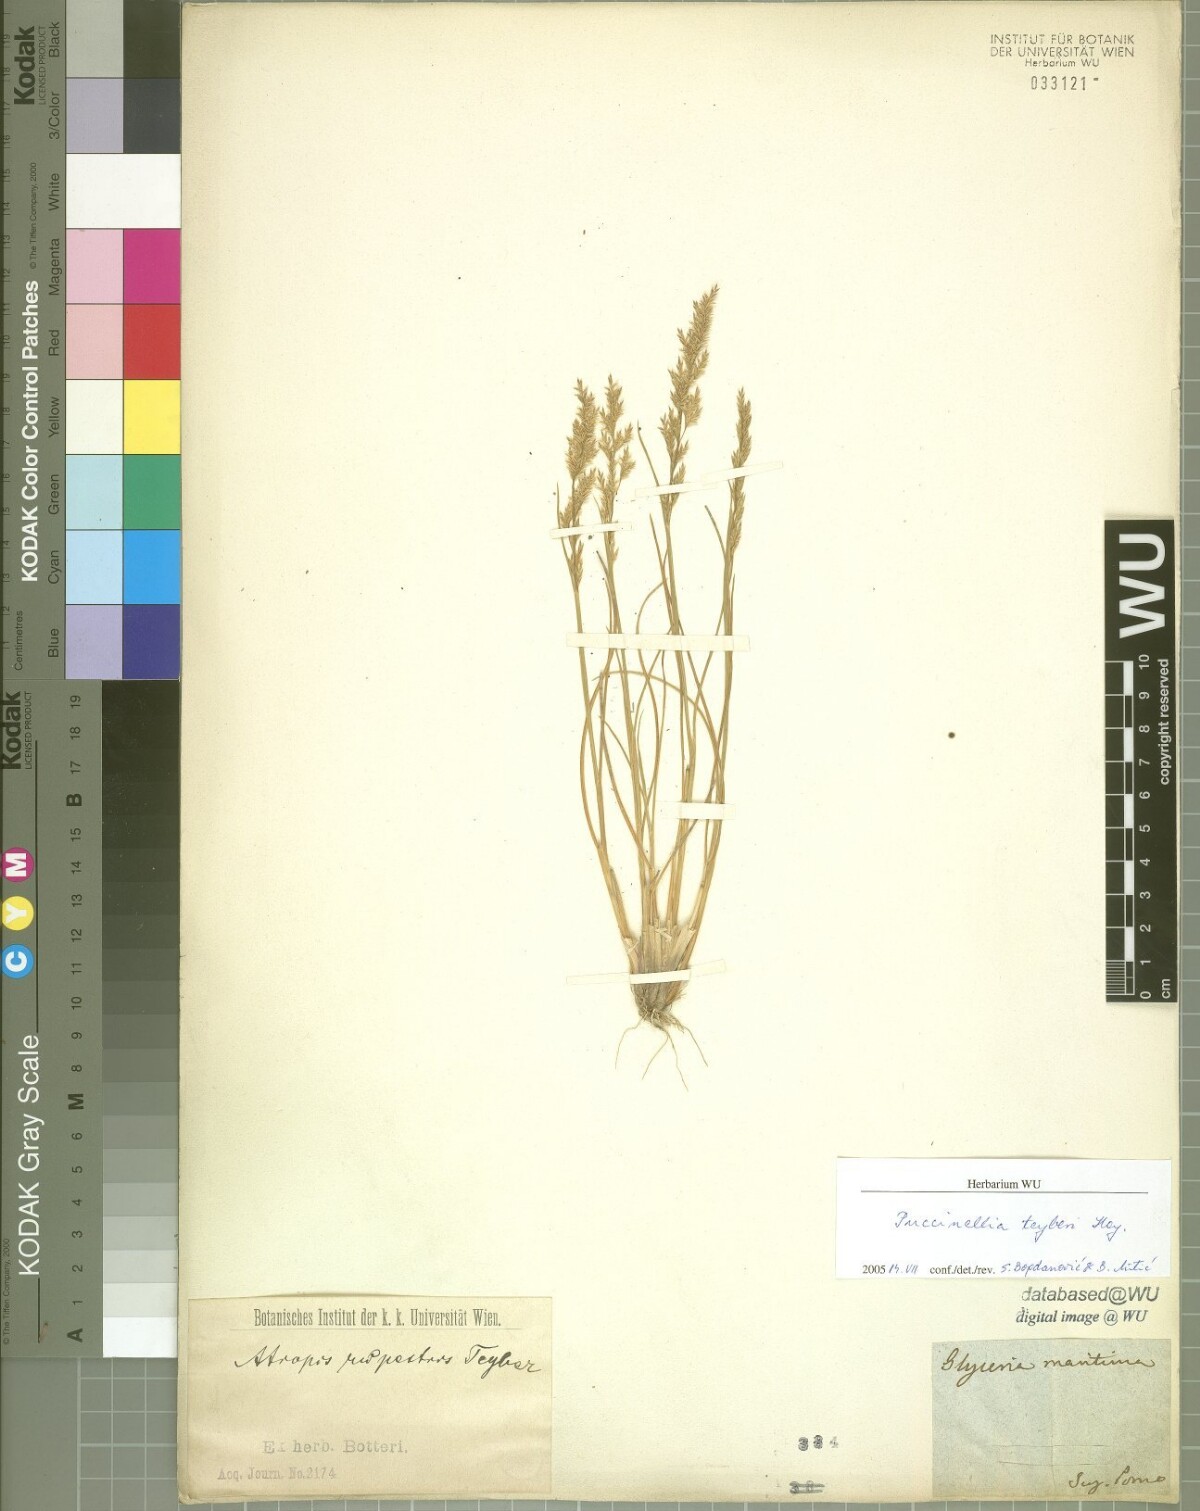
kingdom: Plantae
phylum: Tracheophyta
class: Liliopsida
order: Poales
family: Poaceae
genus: Puccinellia
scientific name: Puccinellia festuciformis
